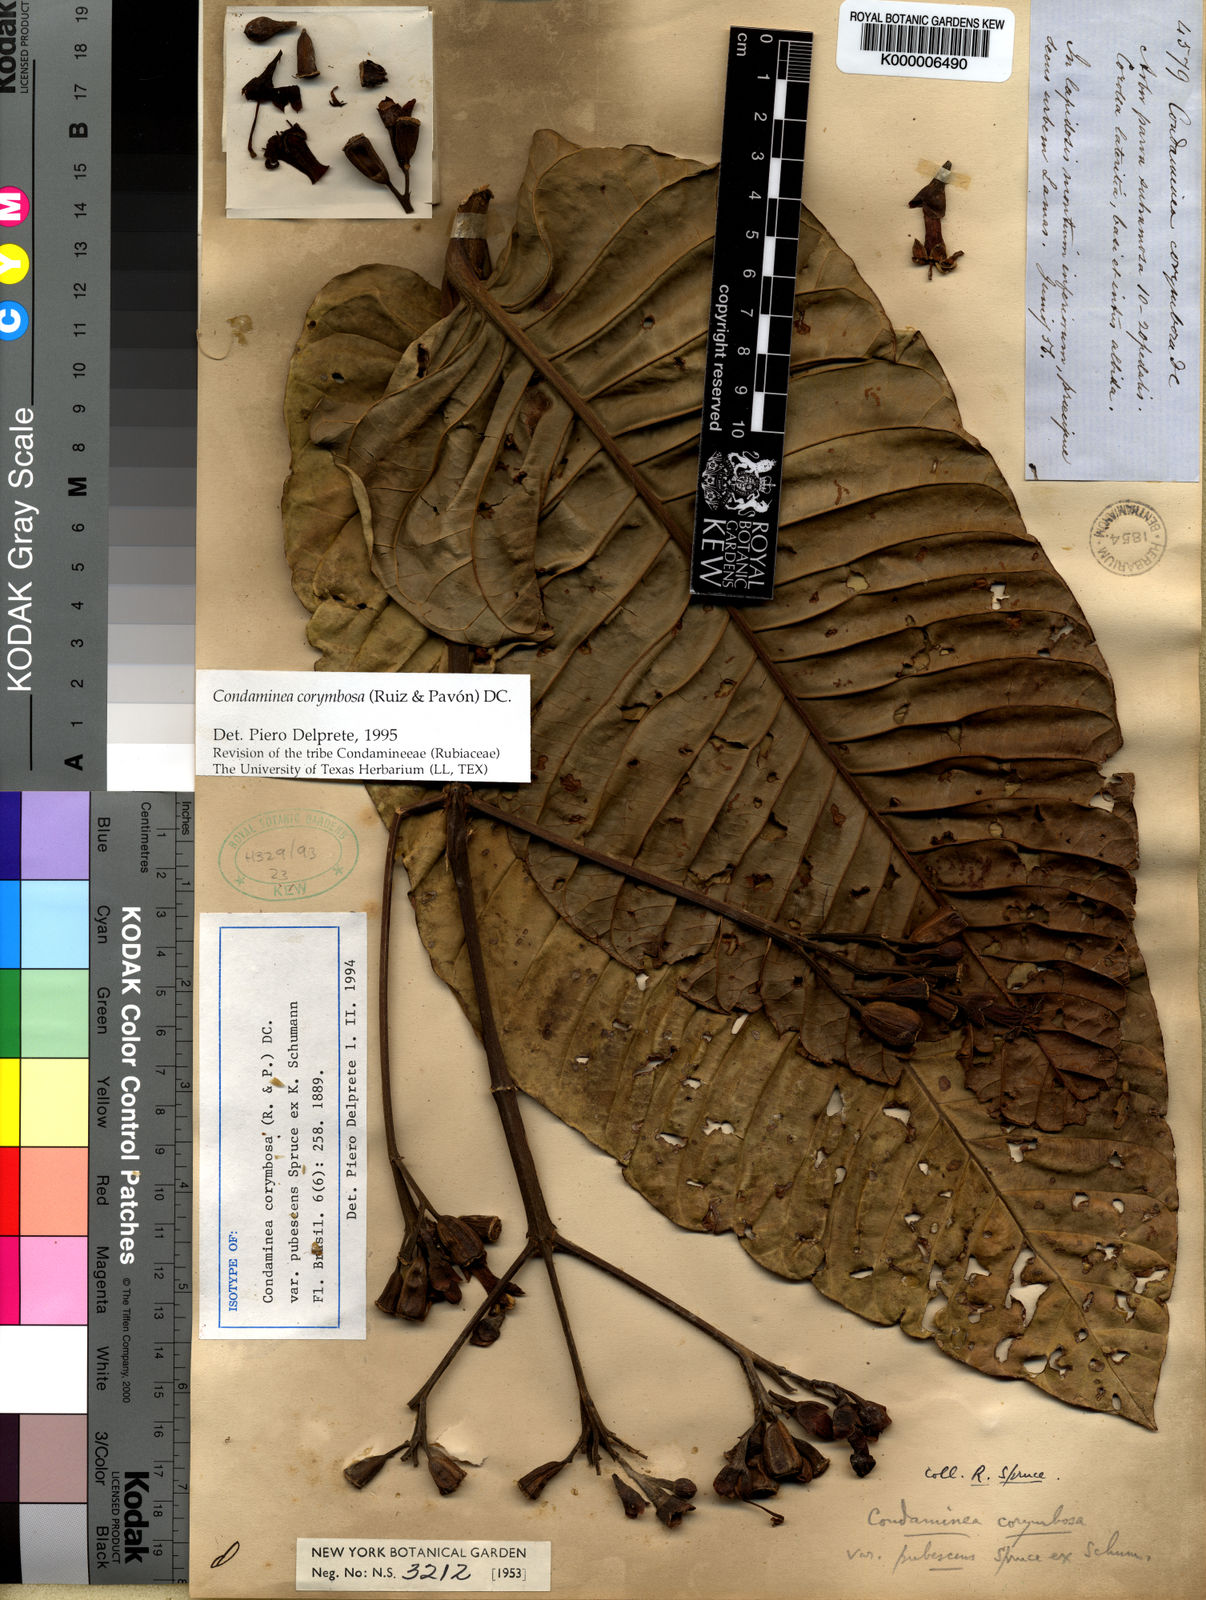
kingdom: Plantae
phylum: Tracheophyta
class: Magnoliopsida
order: Gentianales
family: Rubiaceae
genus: Condaminea
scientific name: Condaminea corymbosa
